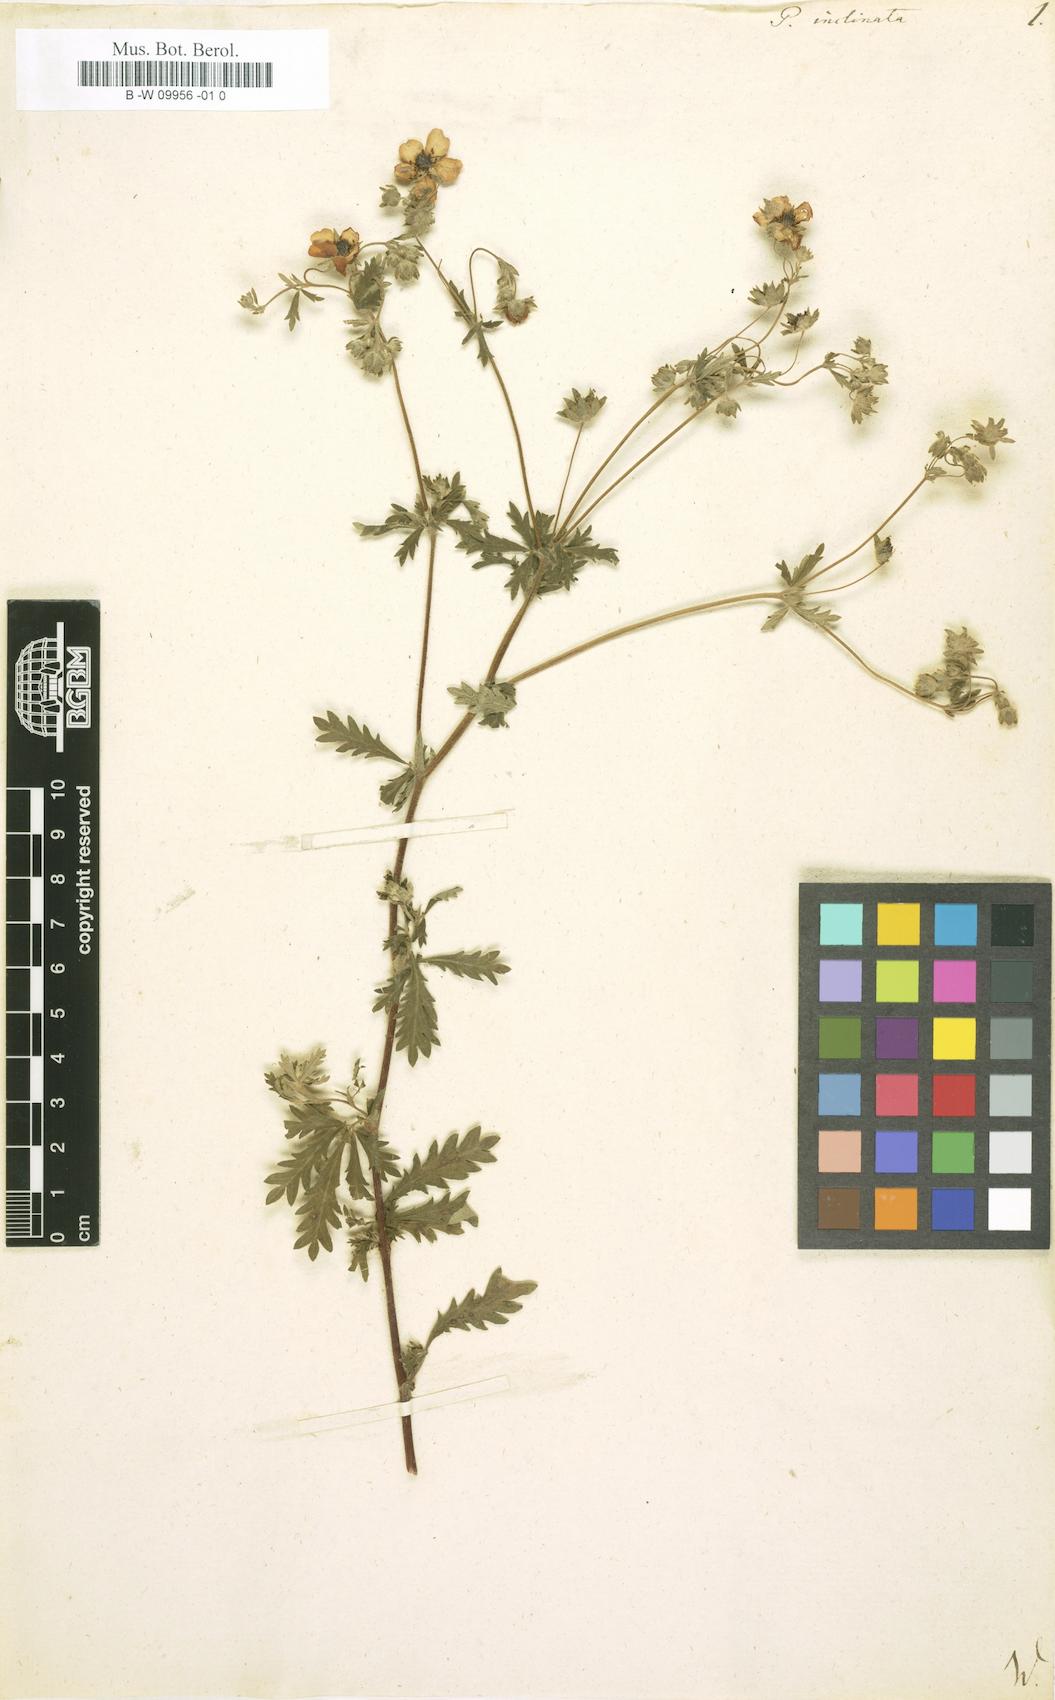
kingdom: Plantae
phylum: Tracheophyta
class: Magnoliopsida
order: Rosales
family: Rosaceae
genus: Potentilla
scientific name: Potentilla inclinata
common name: Grey cinquefoil
